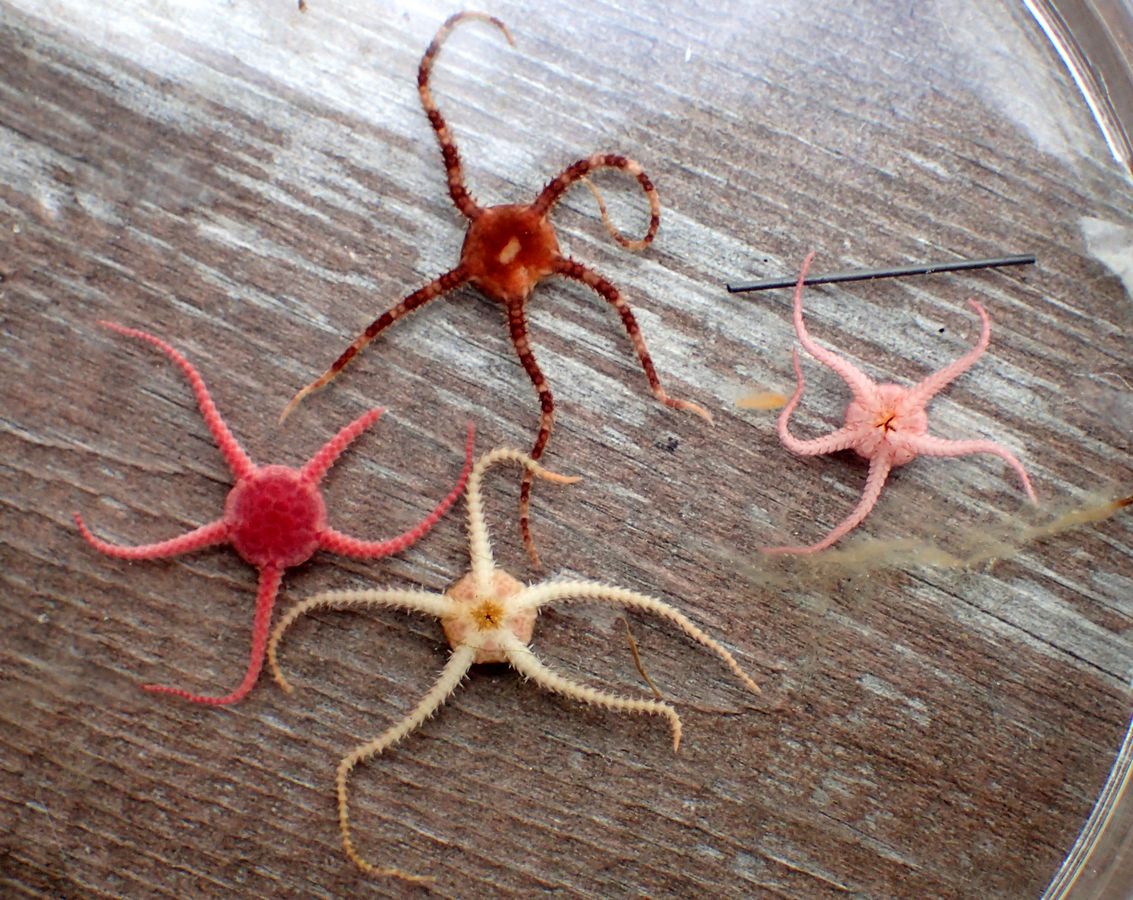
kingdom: Animalia
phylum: Echinodermata
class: Ophiuroidea
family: Ophiuridae
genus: Ophiura
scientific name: Ophiura robusta
